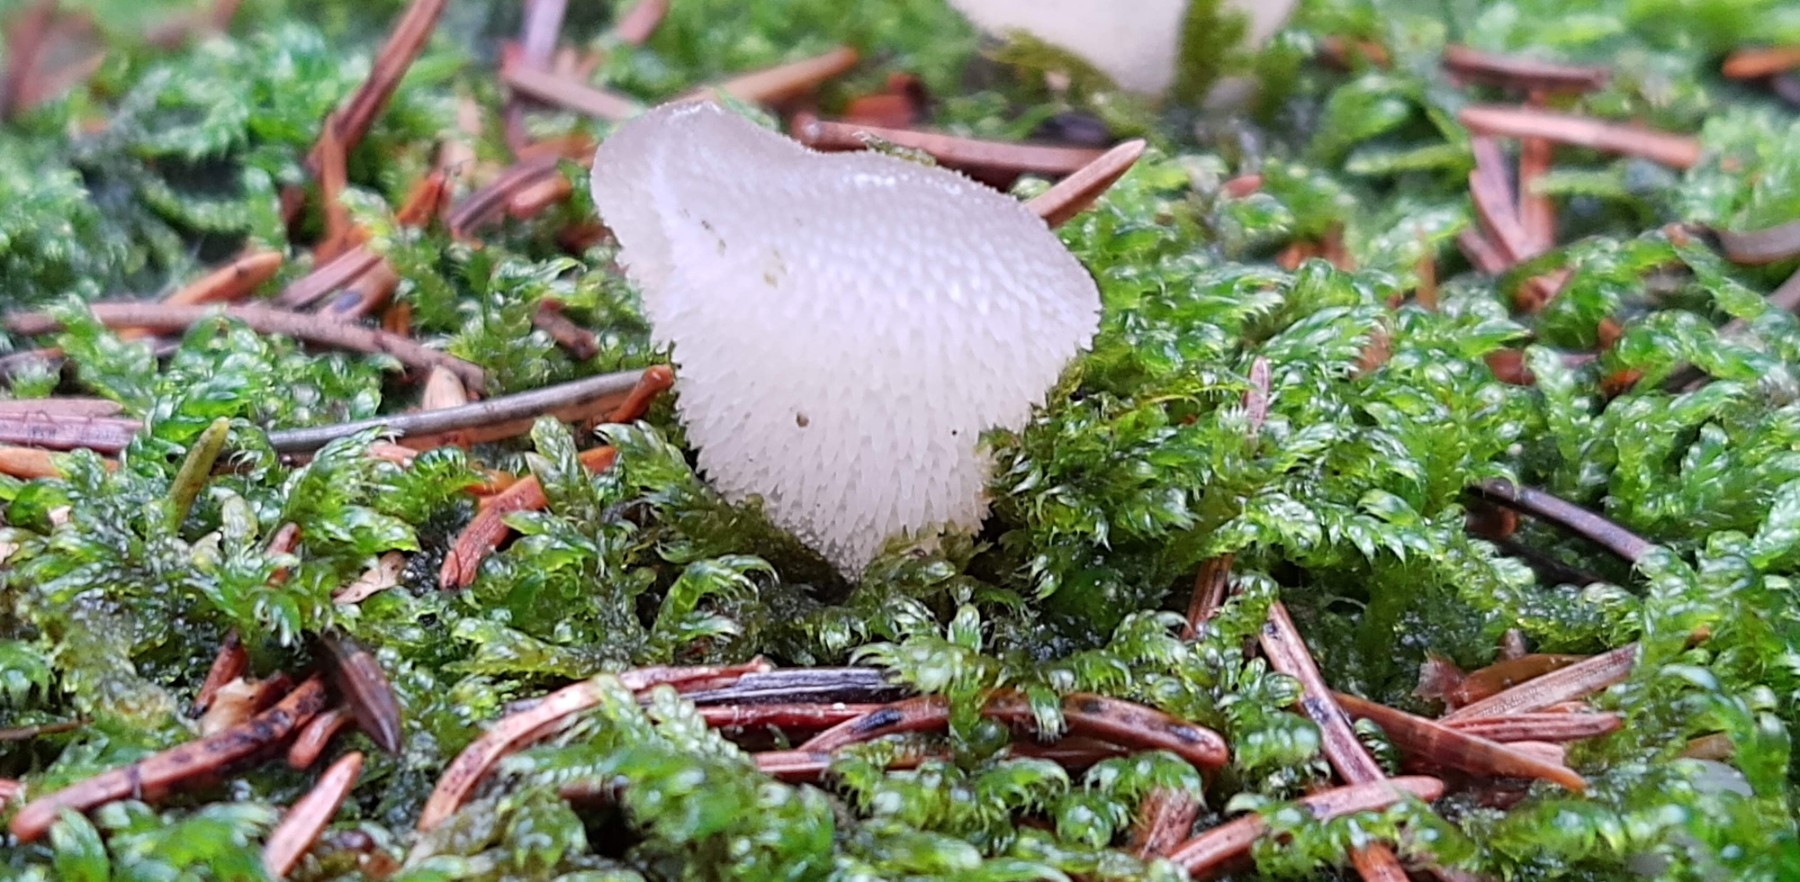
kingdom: Fungi
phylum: Basidiomycota
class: Agaricomycetes
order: Auriculariales
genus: Pseudohydnum
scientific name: Pseudohydnum gelatinosum
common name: bævretand
